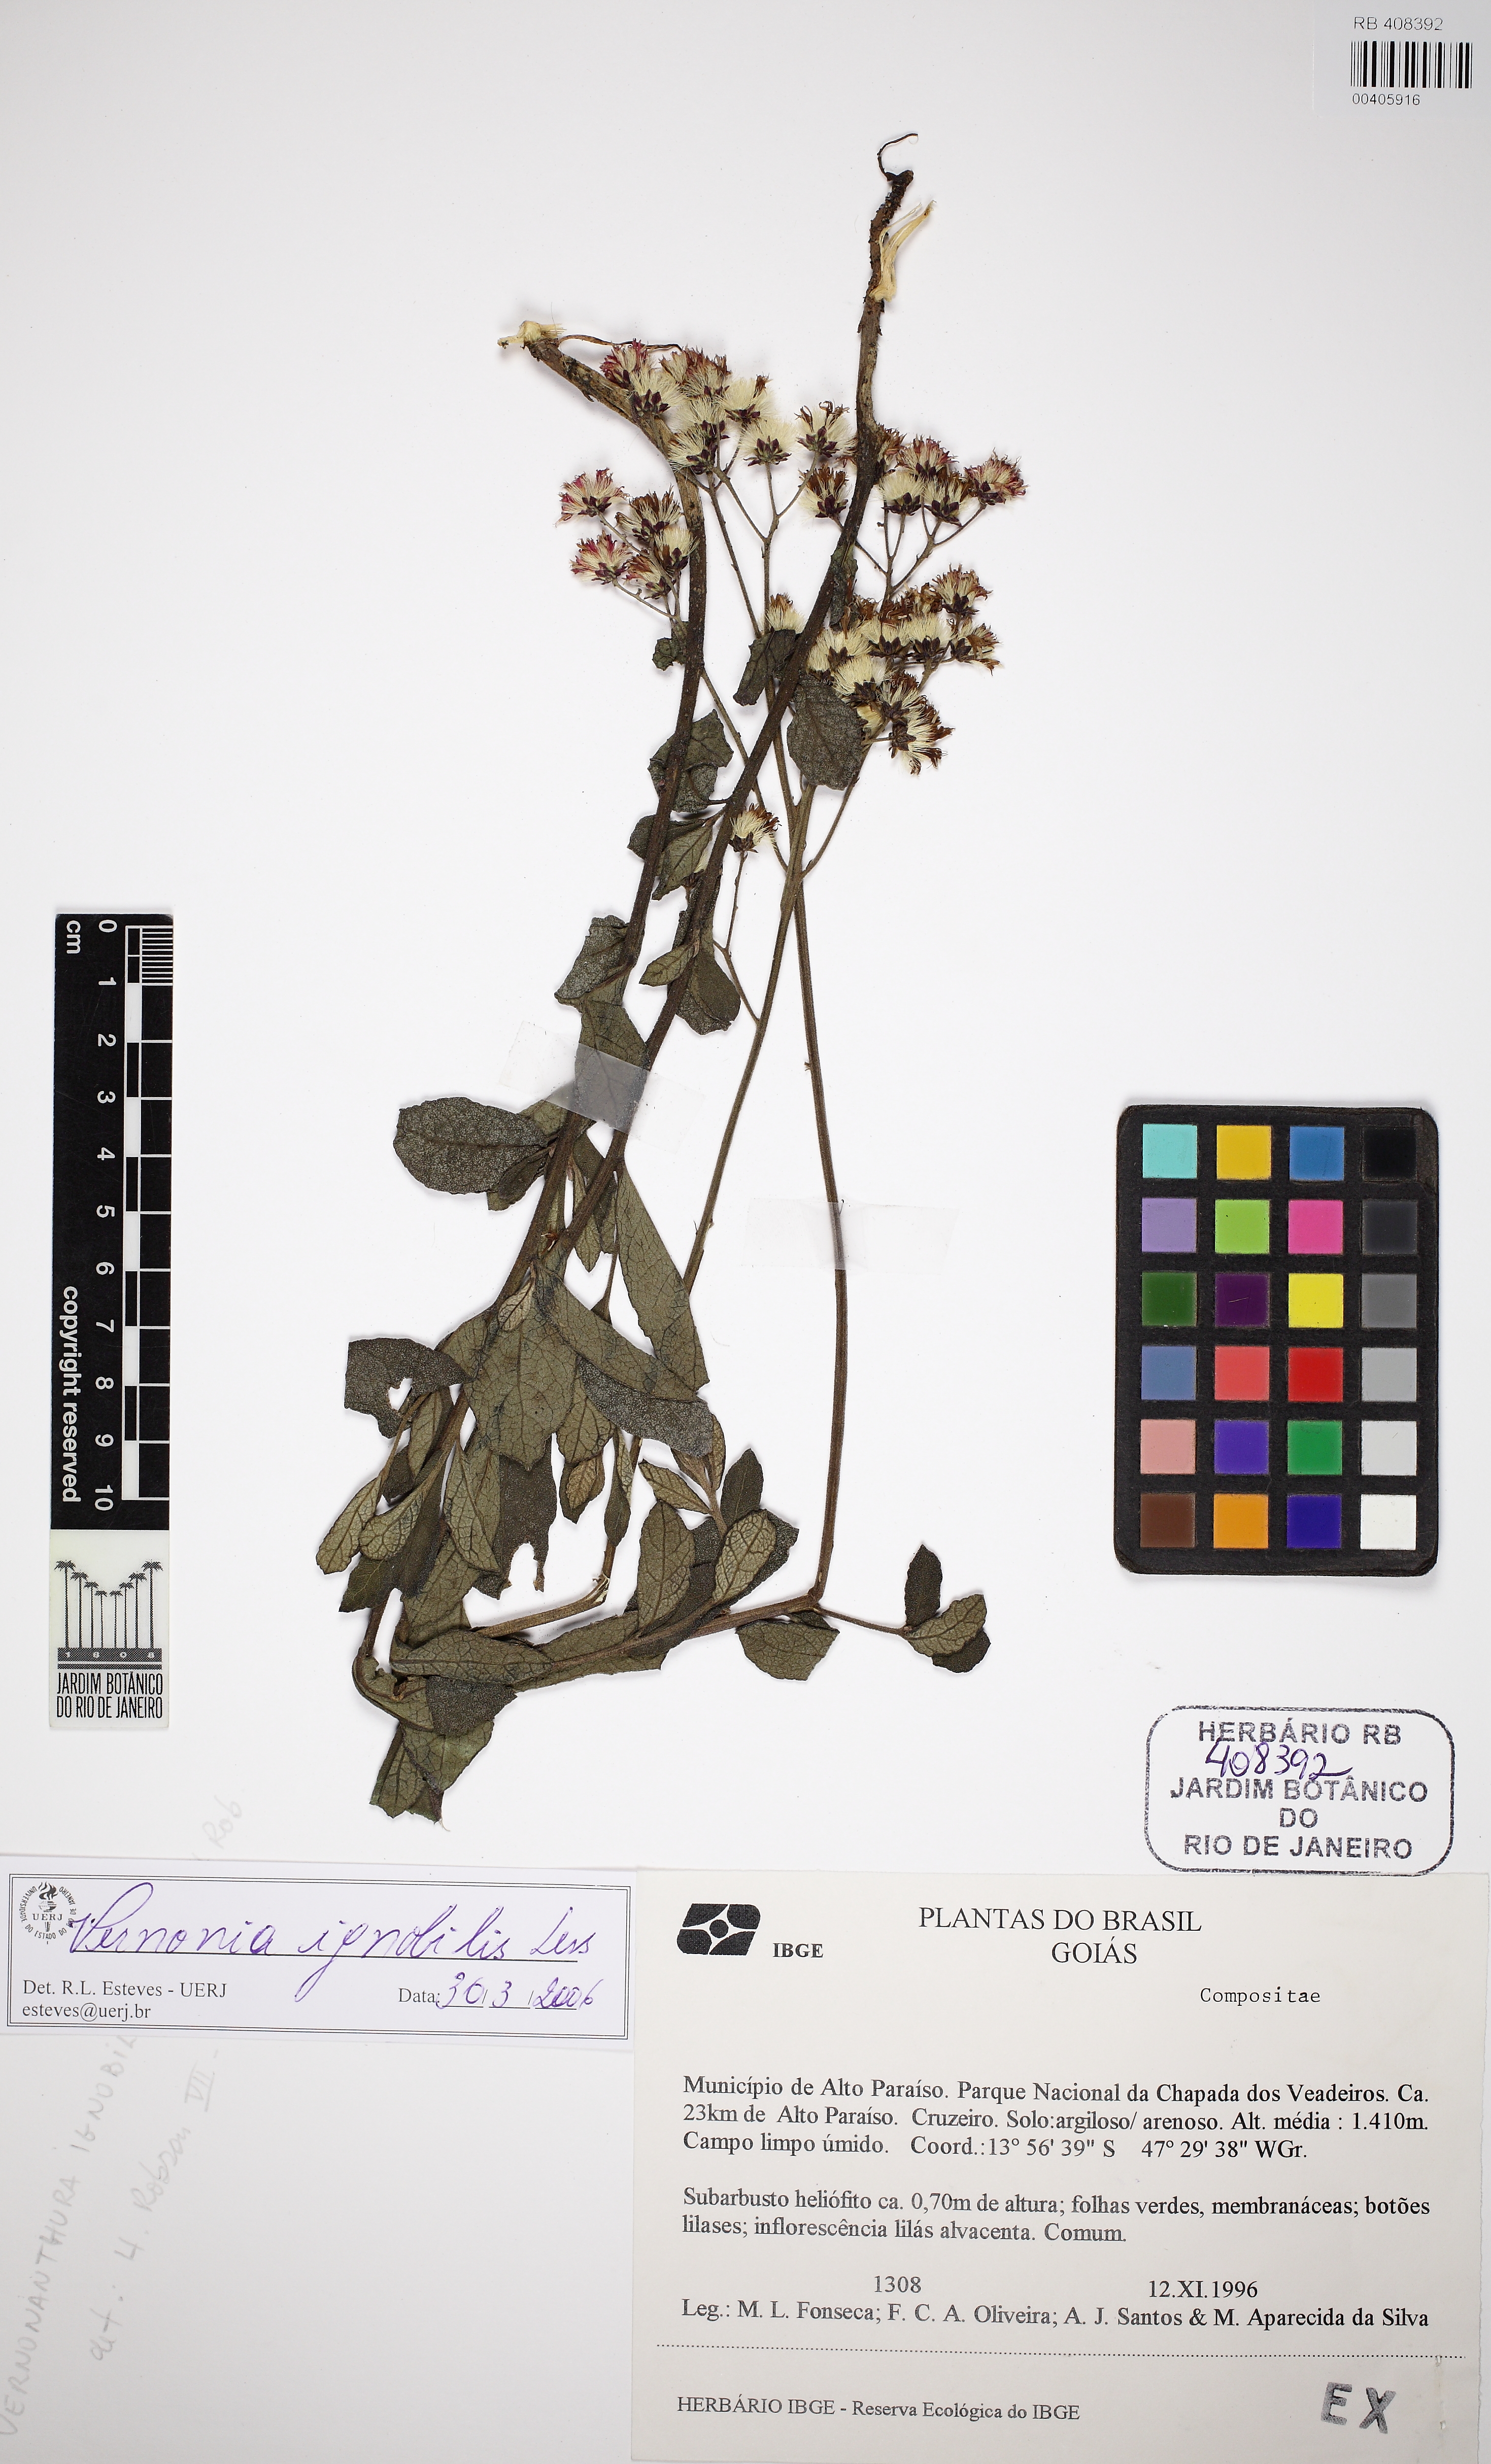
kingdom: Plantae
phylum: Tracheophyta
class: Magnoliopsida
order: Asterales
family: Asteraceae
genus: Vernonanthura
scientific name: Vernonanthura ignobilis
